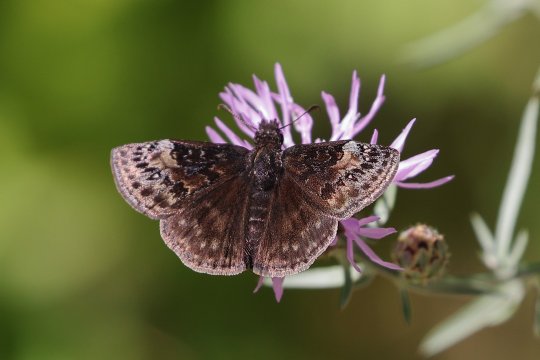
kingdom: Animalia
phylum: Arthropoda
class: Insecta
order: Lepidoptera
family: Hesperiidae
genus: Gesta
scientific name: Gesta
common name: Columbine Duskywing
